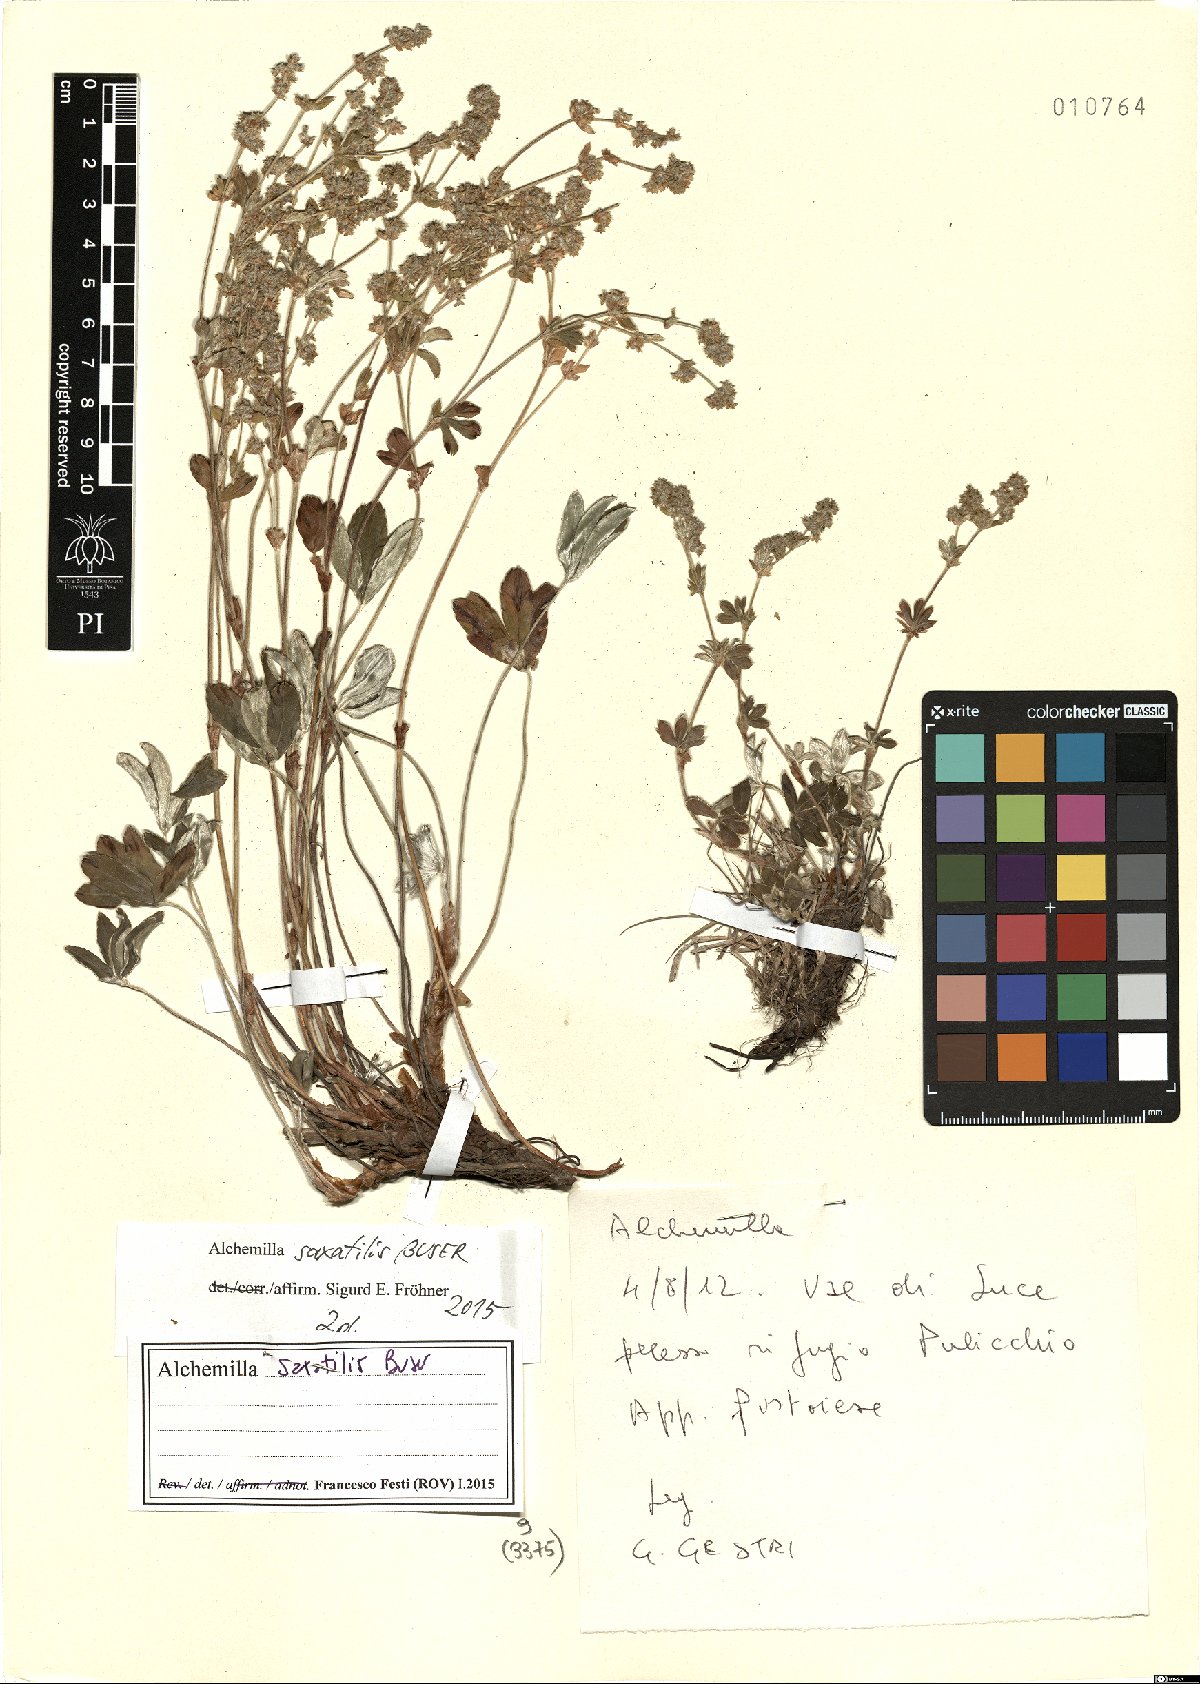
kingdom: Plantae
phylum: Tracheophyta
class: Magnoliopsida
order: Rosales
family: Rosaceae
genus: Alchemilla
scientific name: Alchemilla saxatilis
